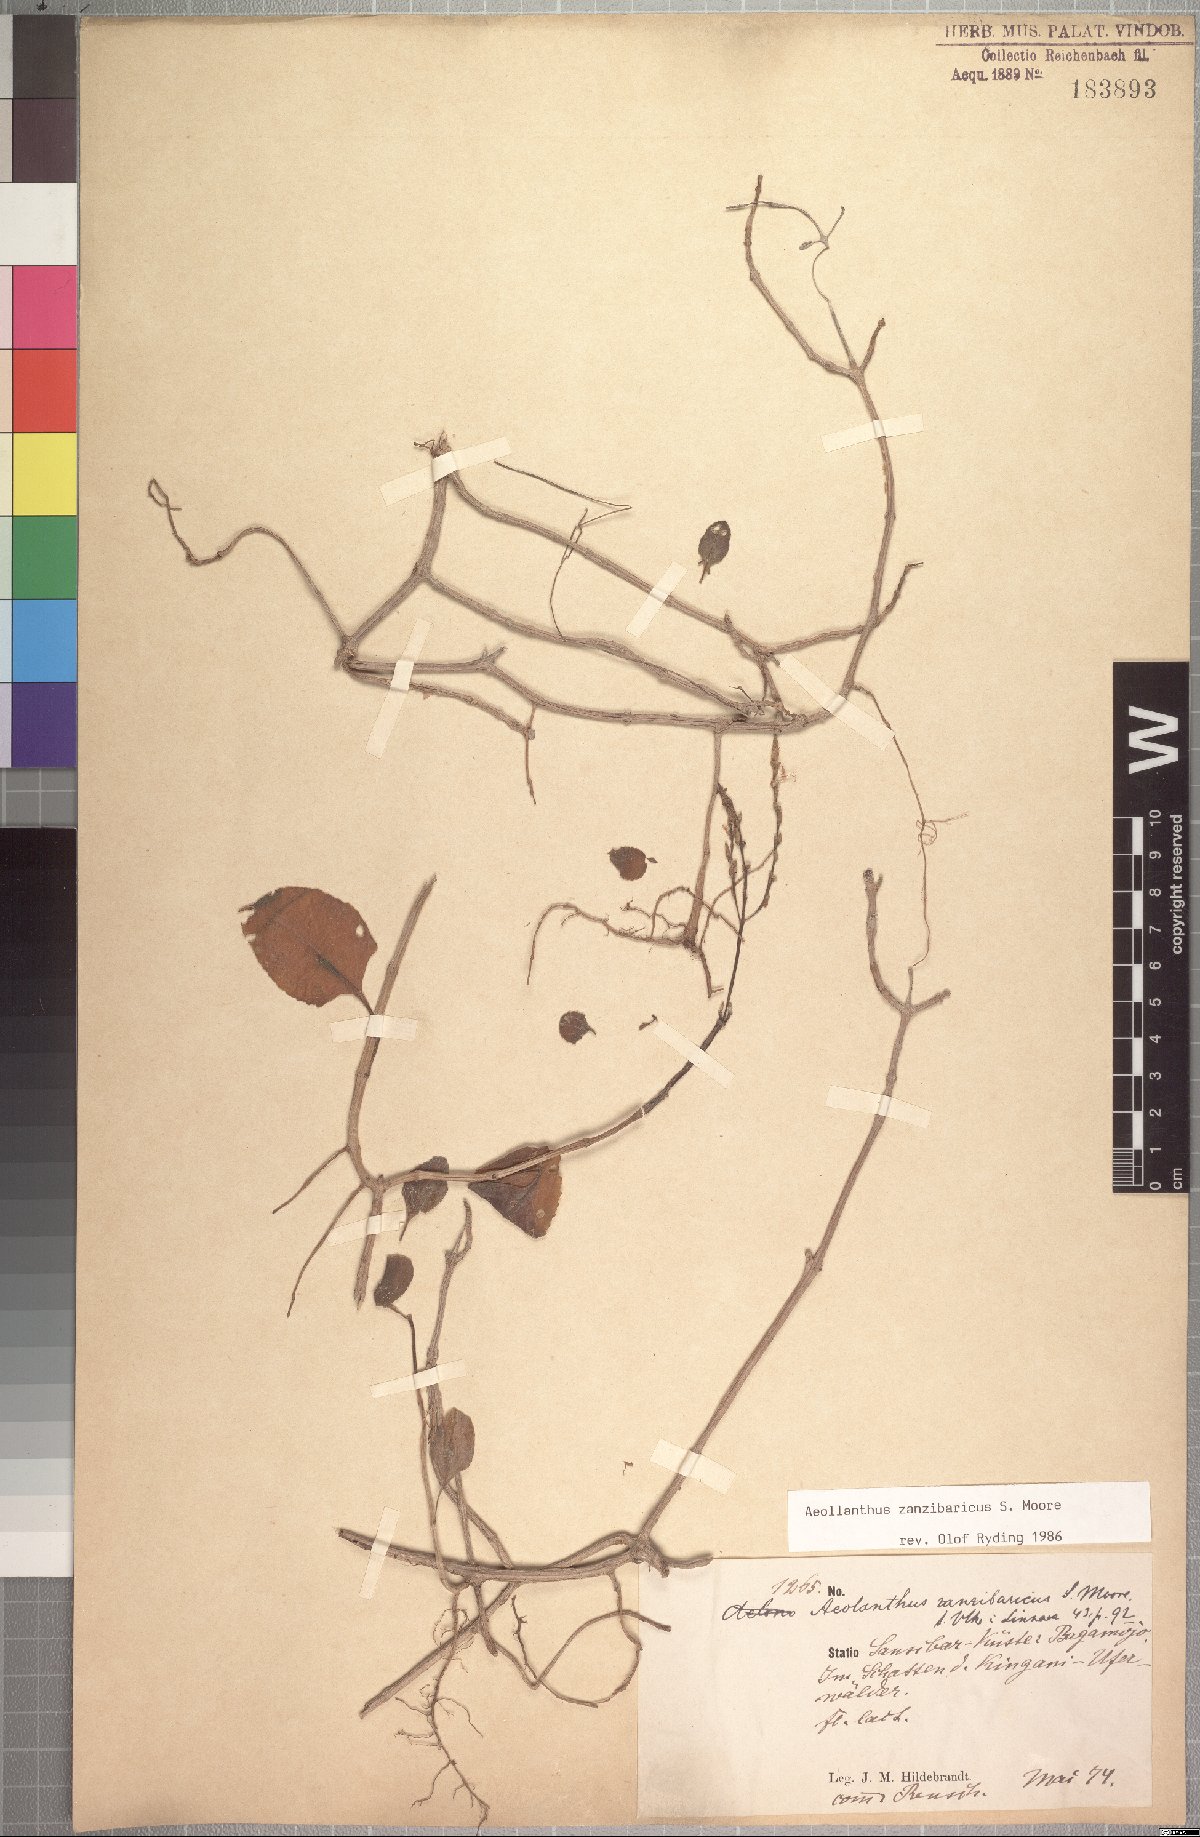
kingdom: Plantae
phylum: Tracheophyta
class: Magnoliopsida
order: Lamiales
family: Lamiaceae
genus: Aeollanthus
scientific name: Aeollanthus zanzibaricus
